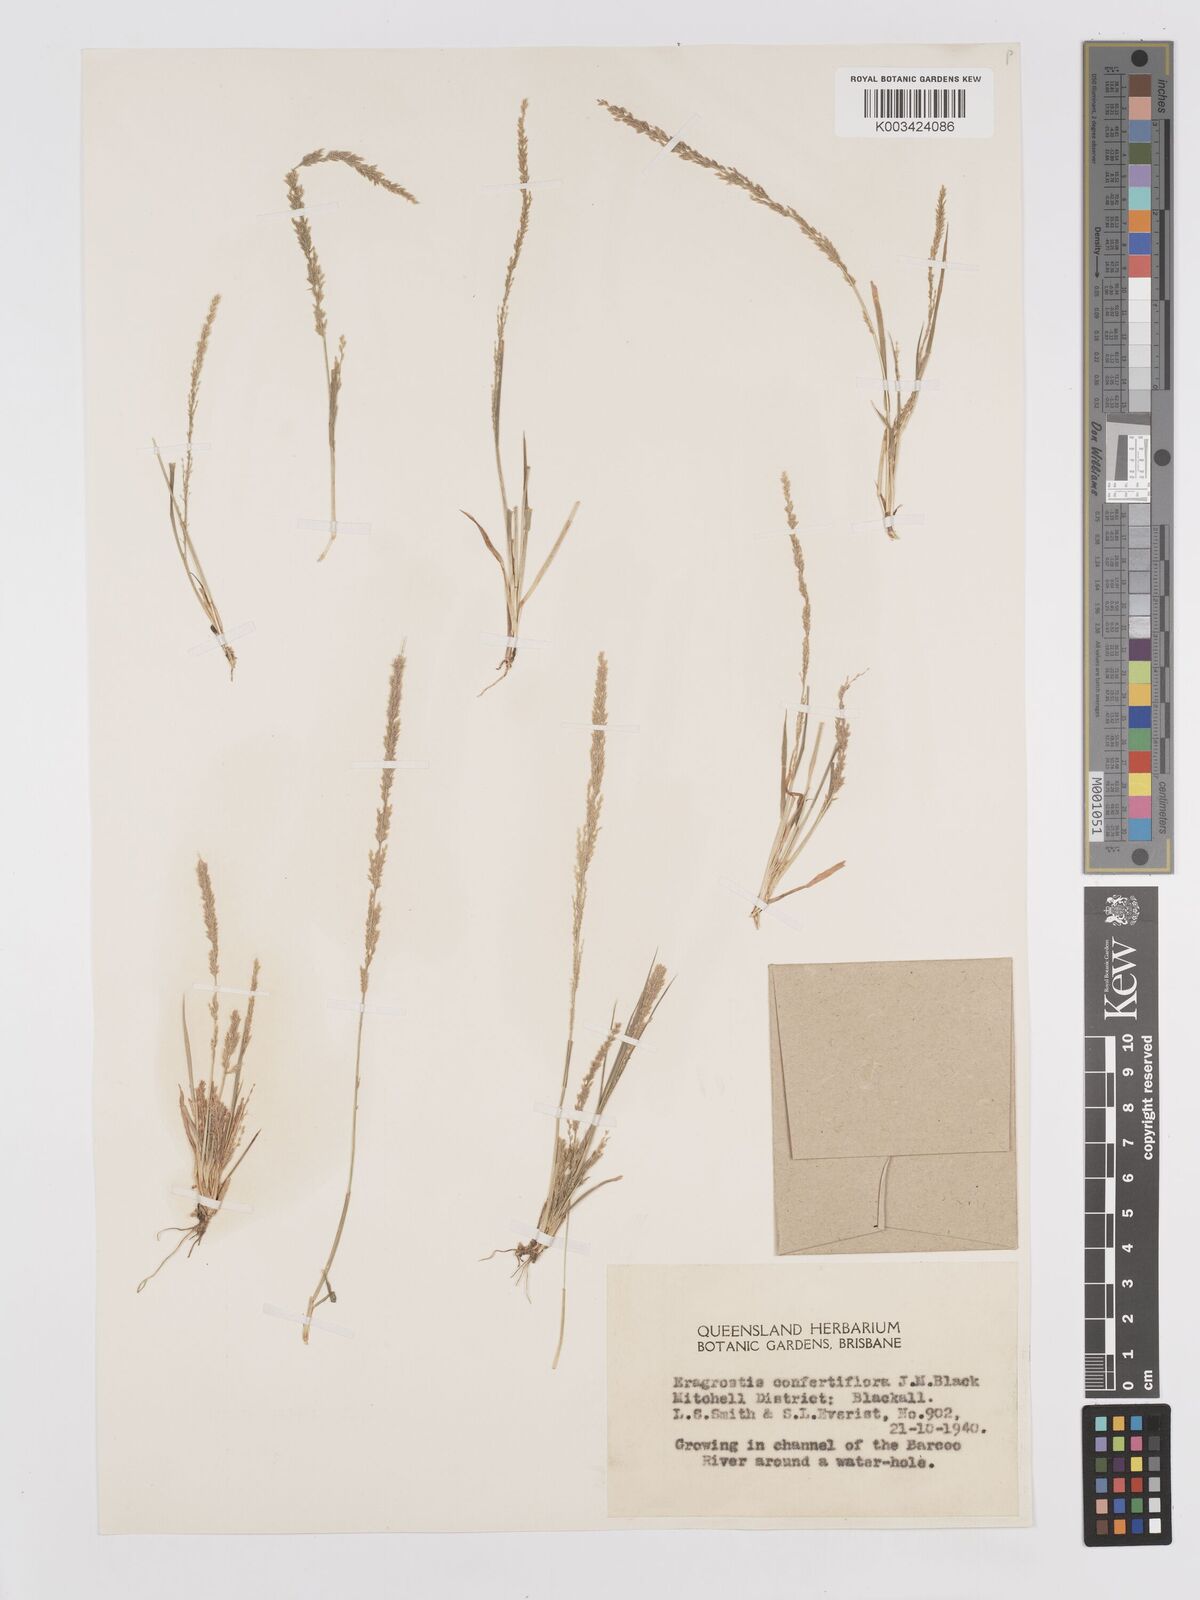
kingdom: Plantae
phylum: Tracheophyta
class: Liliopsida
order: Poales
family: Poaceae
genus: Eragrostis
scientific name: Eragrostis confertiflora
